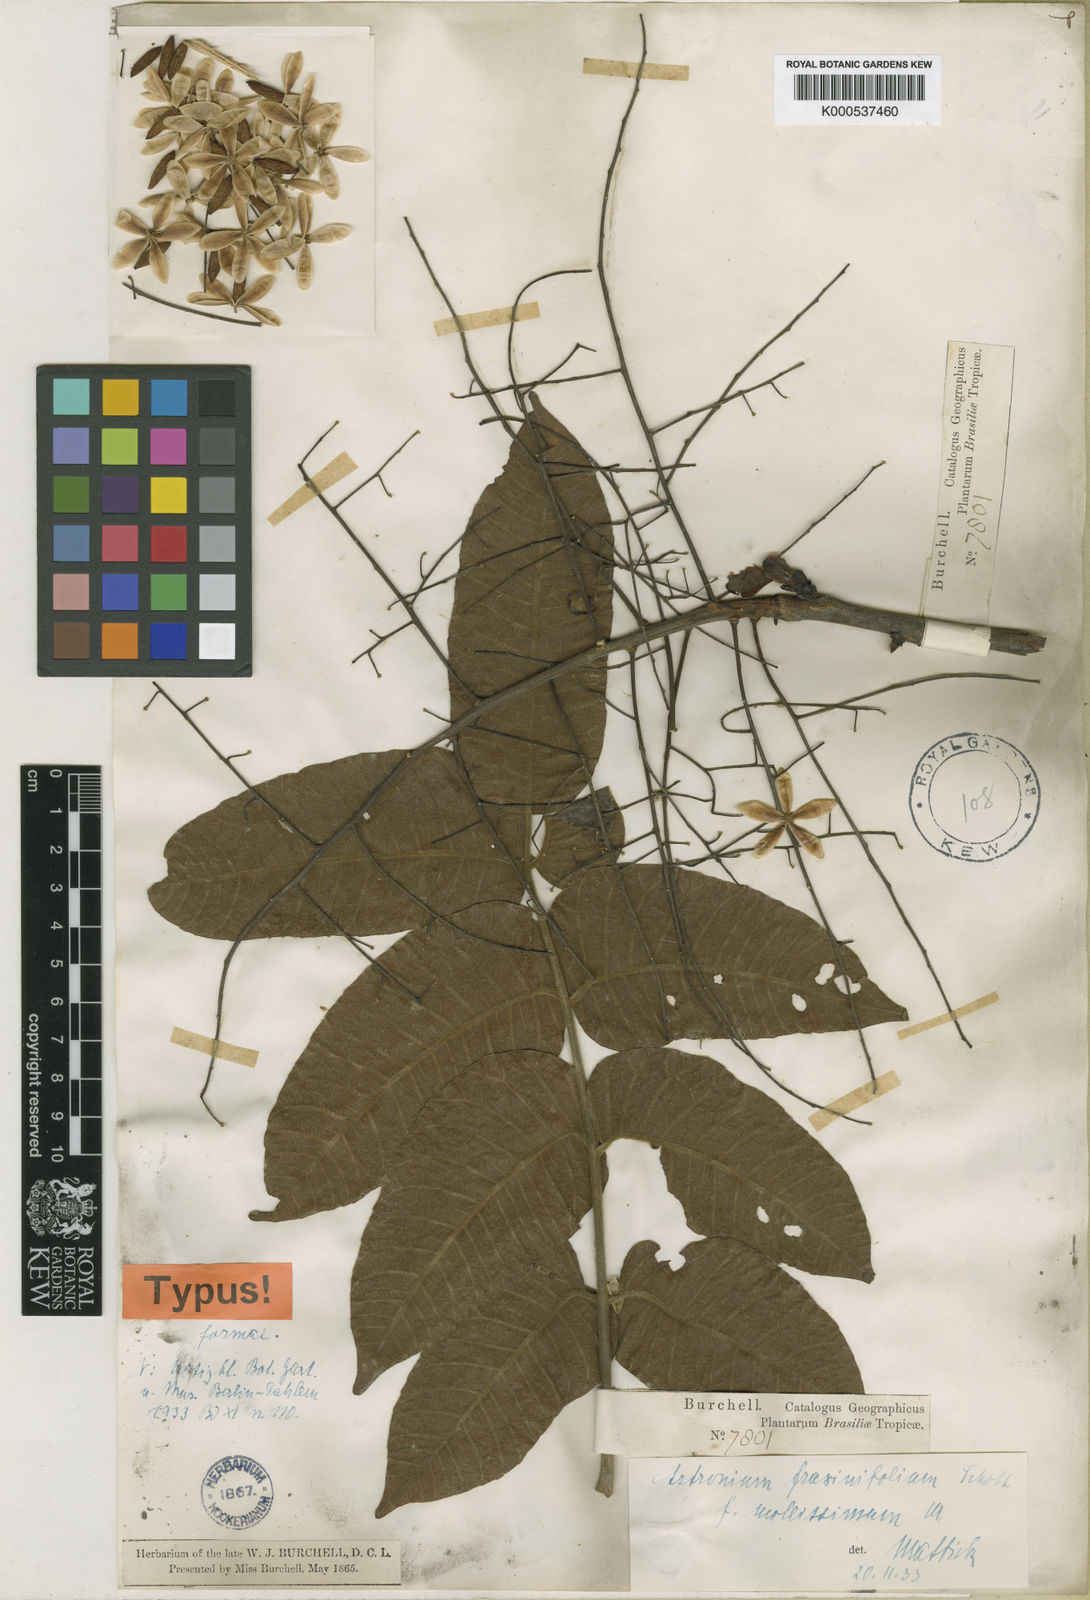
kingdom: Plantae
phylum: Tracheophyta
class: Magnoliopsida
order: Sapindales
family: Anacardiaceae
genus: Astronium
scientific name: Astronium fraxinifolium
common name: Tigerwood
